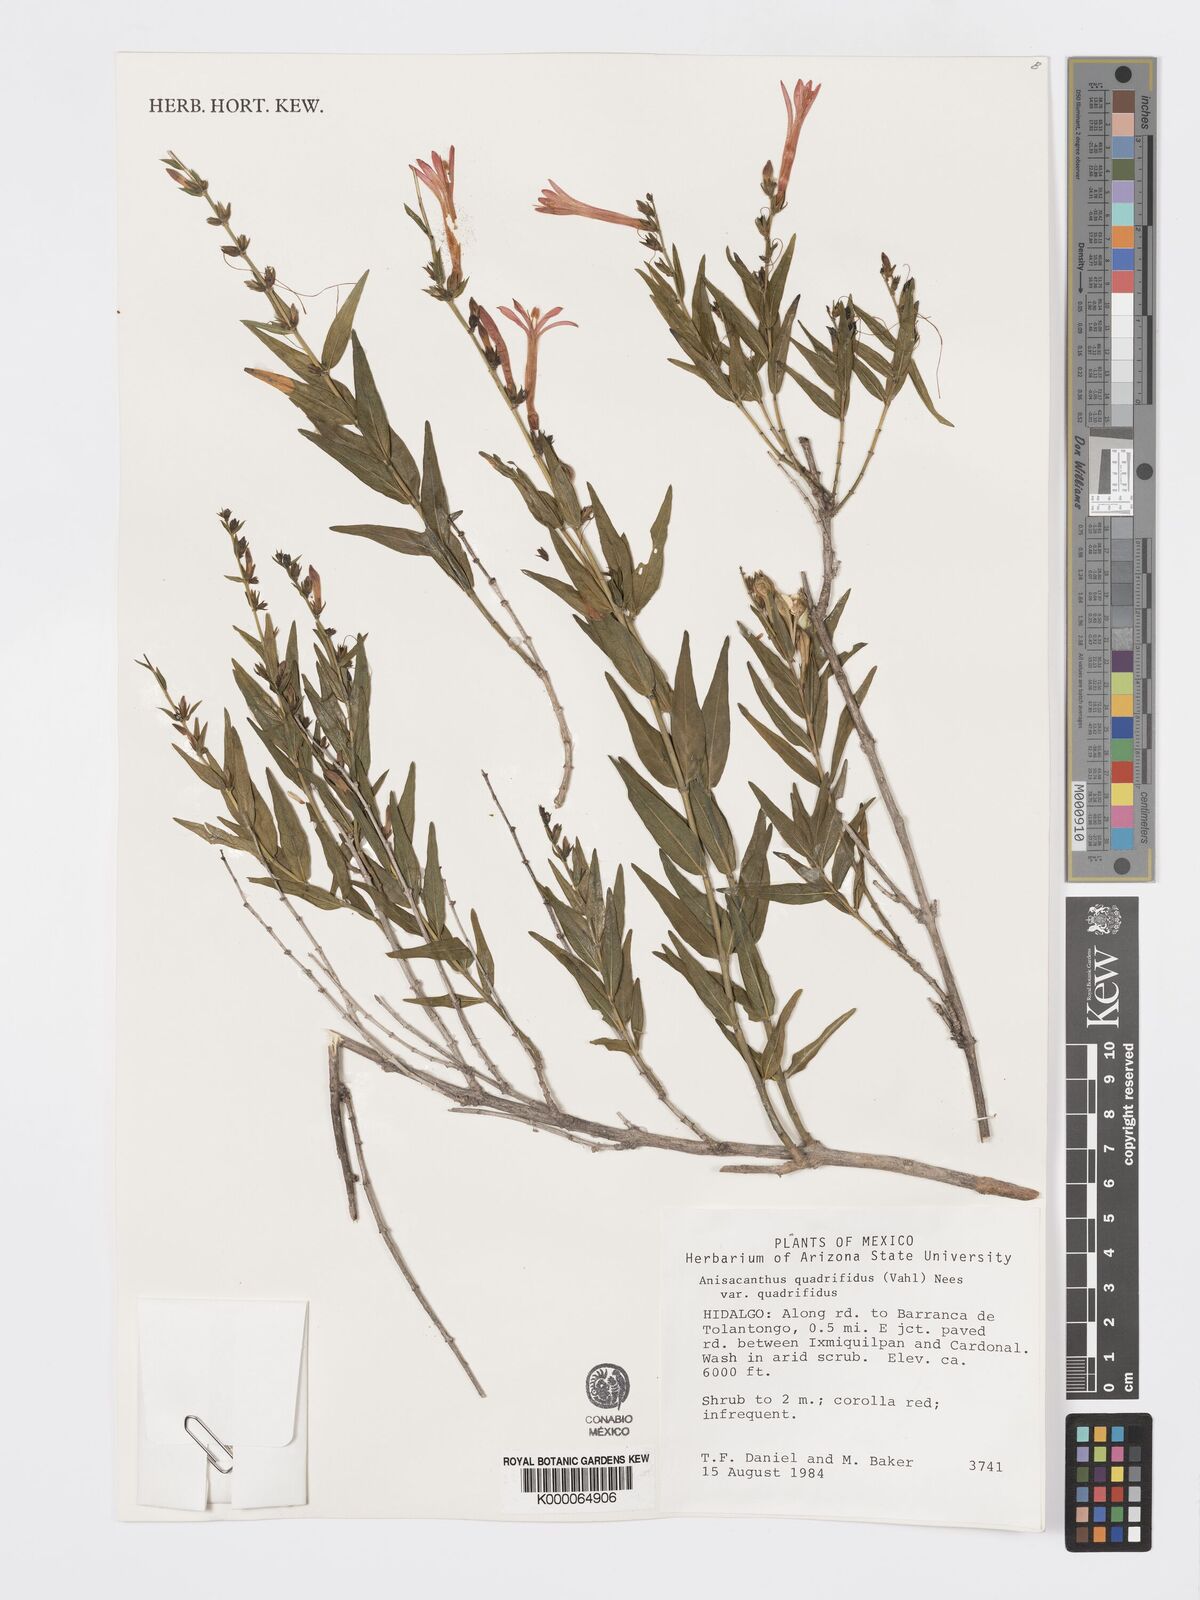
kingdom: Plantae
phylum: Tracheophyta
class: Magnoliopsida
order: Lamiales
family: Acanthaceae
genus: Anisacanthus
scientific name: Anisacanthus quadrifidus
